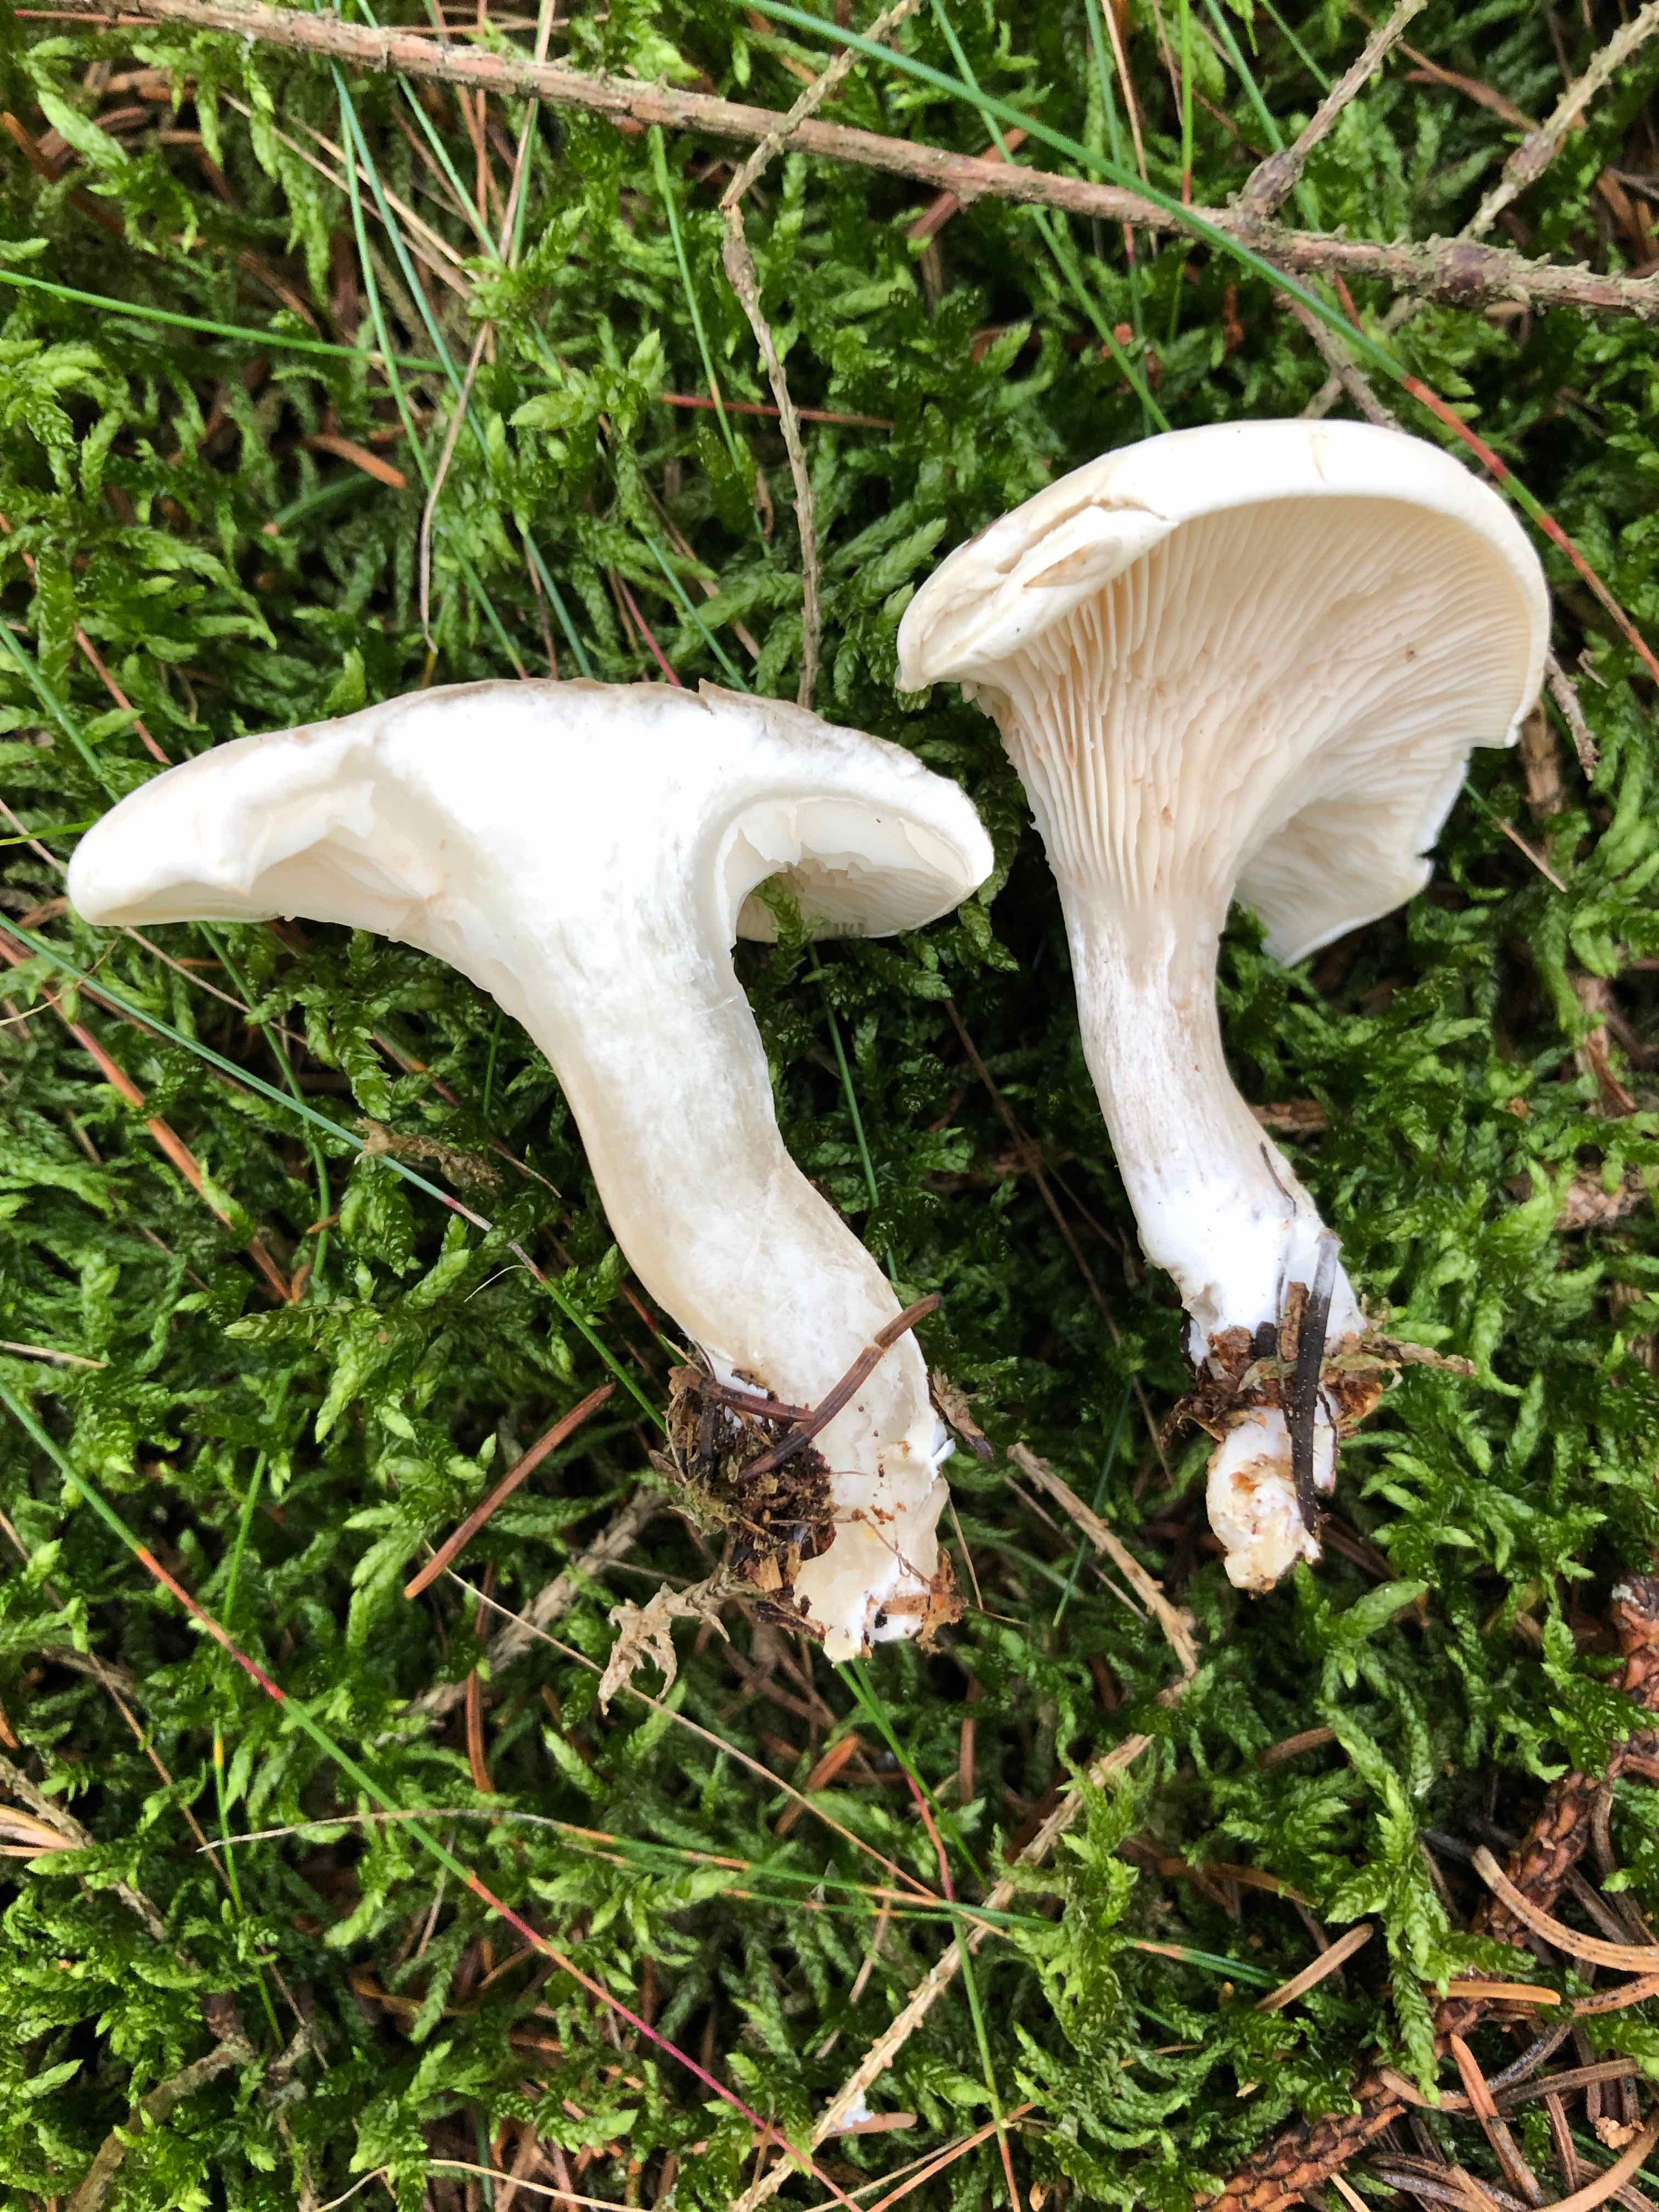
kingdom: Fungi
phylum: Basidiomycota
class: Agaricomycetes
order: Agaricales
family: Entolomataceae
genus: Clitopilus
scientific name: Clitopilus prunulus
